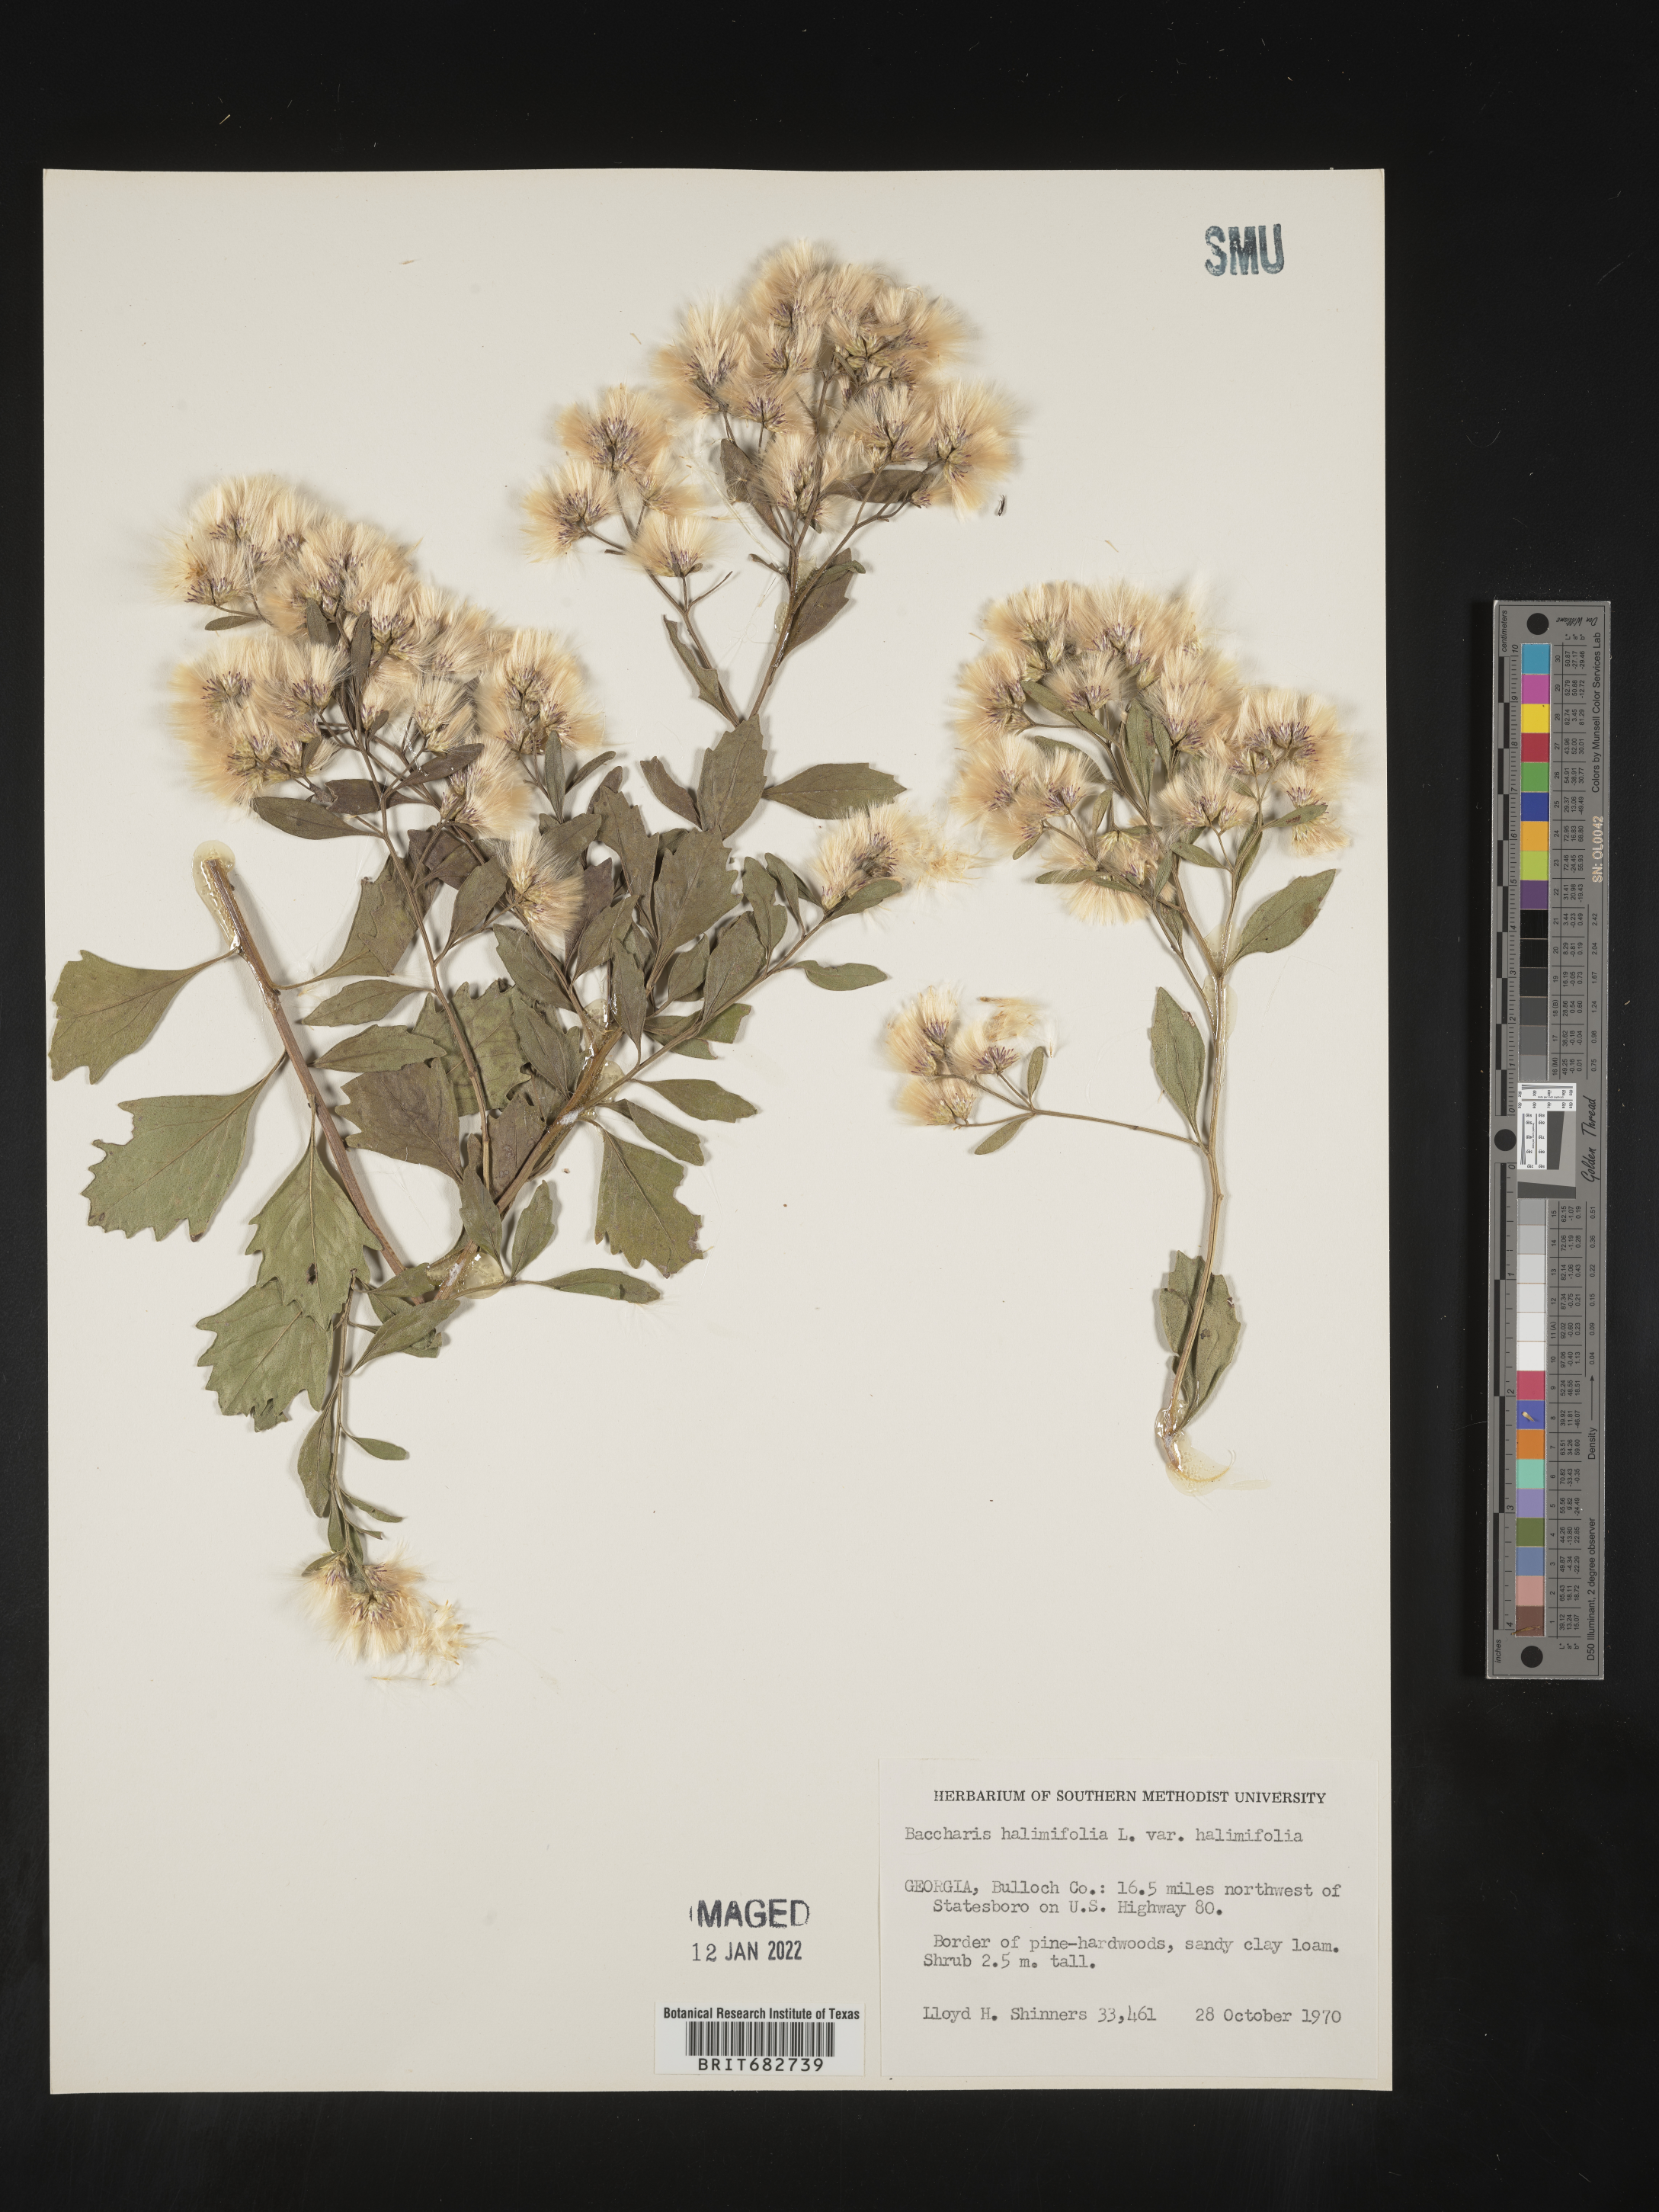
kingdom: Plantae
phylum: Tracheophyta
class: Magnoliopsida
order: Asterales
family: Asteraceae
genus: Nidorella
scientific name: Nidorella ivifolia
